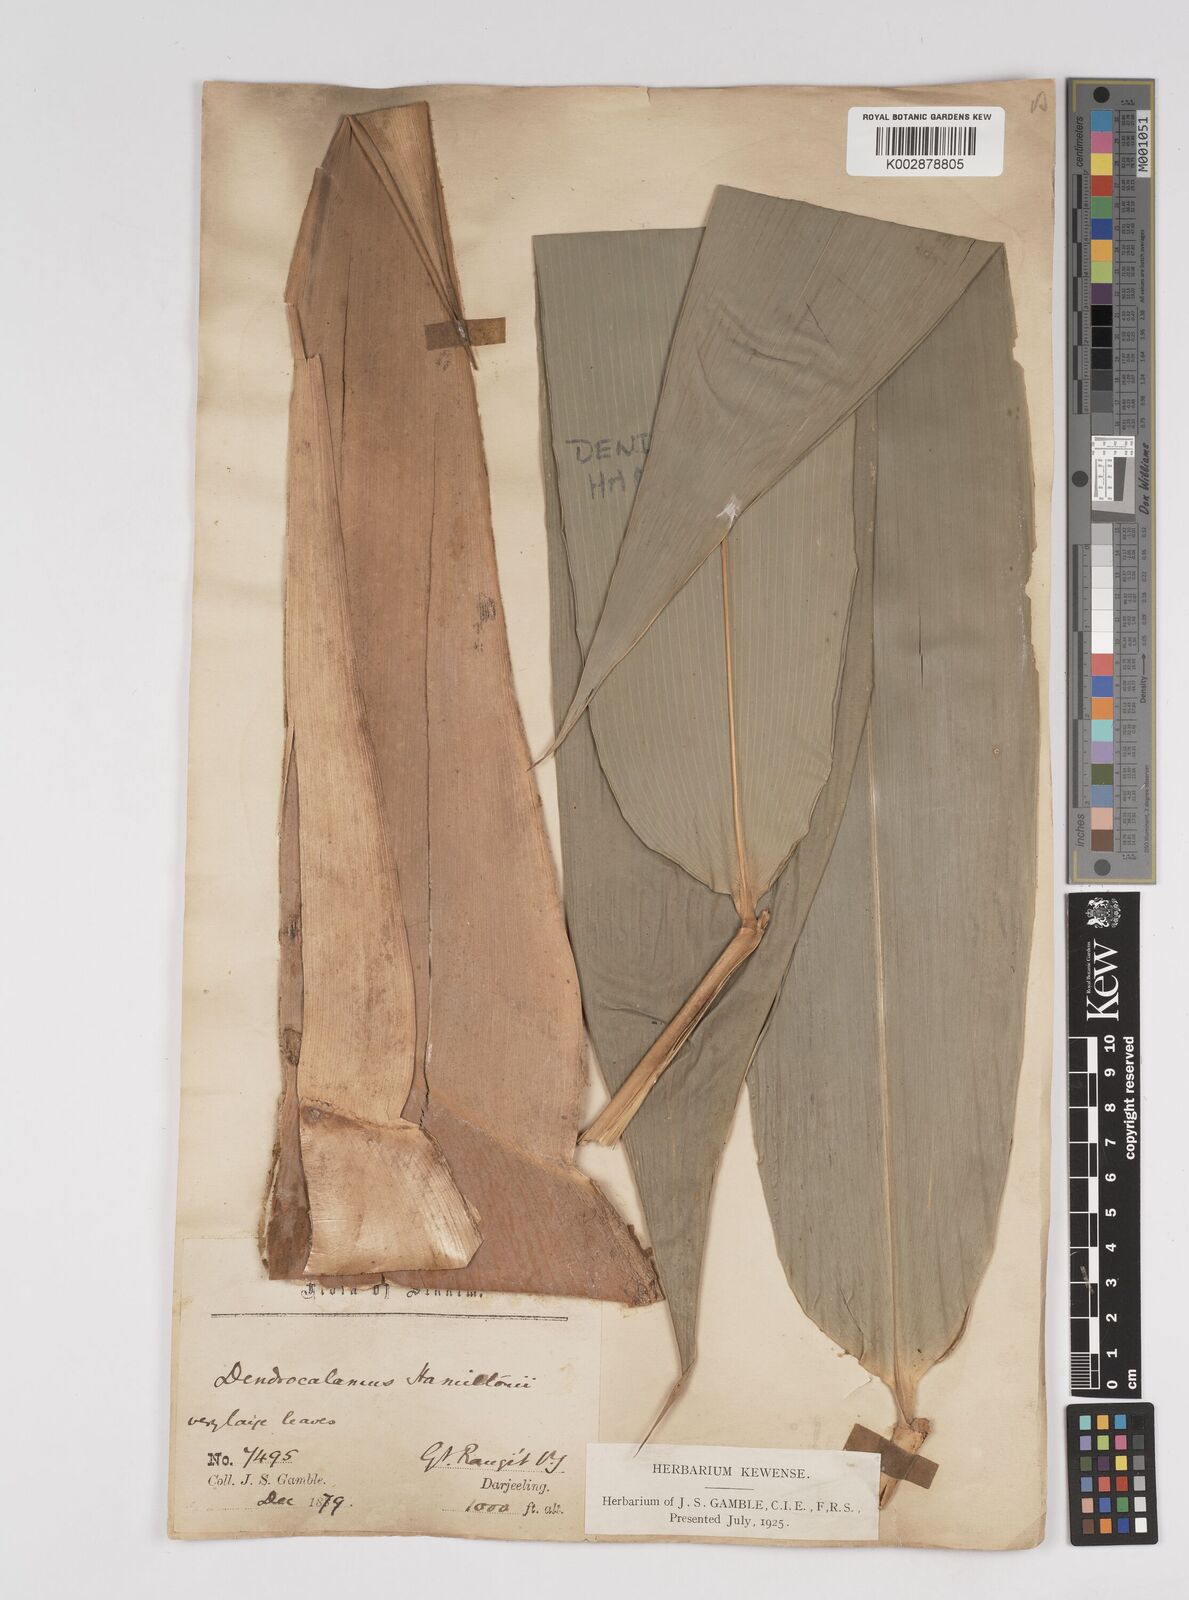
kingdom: Plantae
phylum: Tracheophyta
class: Liliopsida
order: Poales
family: Poaceae
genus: Dendrocalamus
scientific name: Dendrocalamus hamiltonii
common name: Tama bamboo
